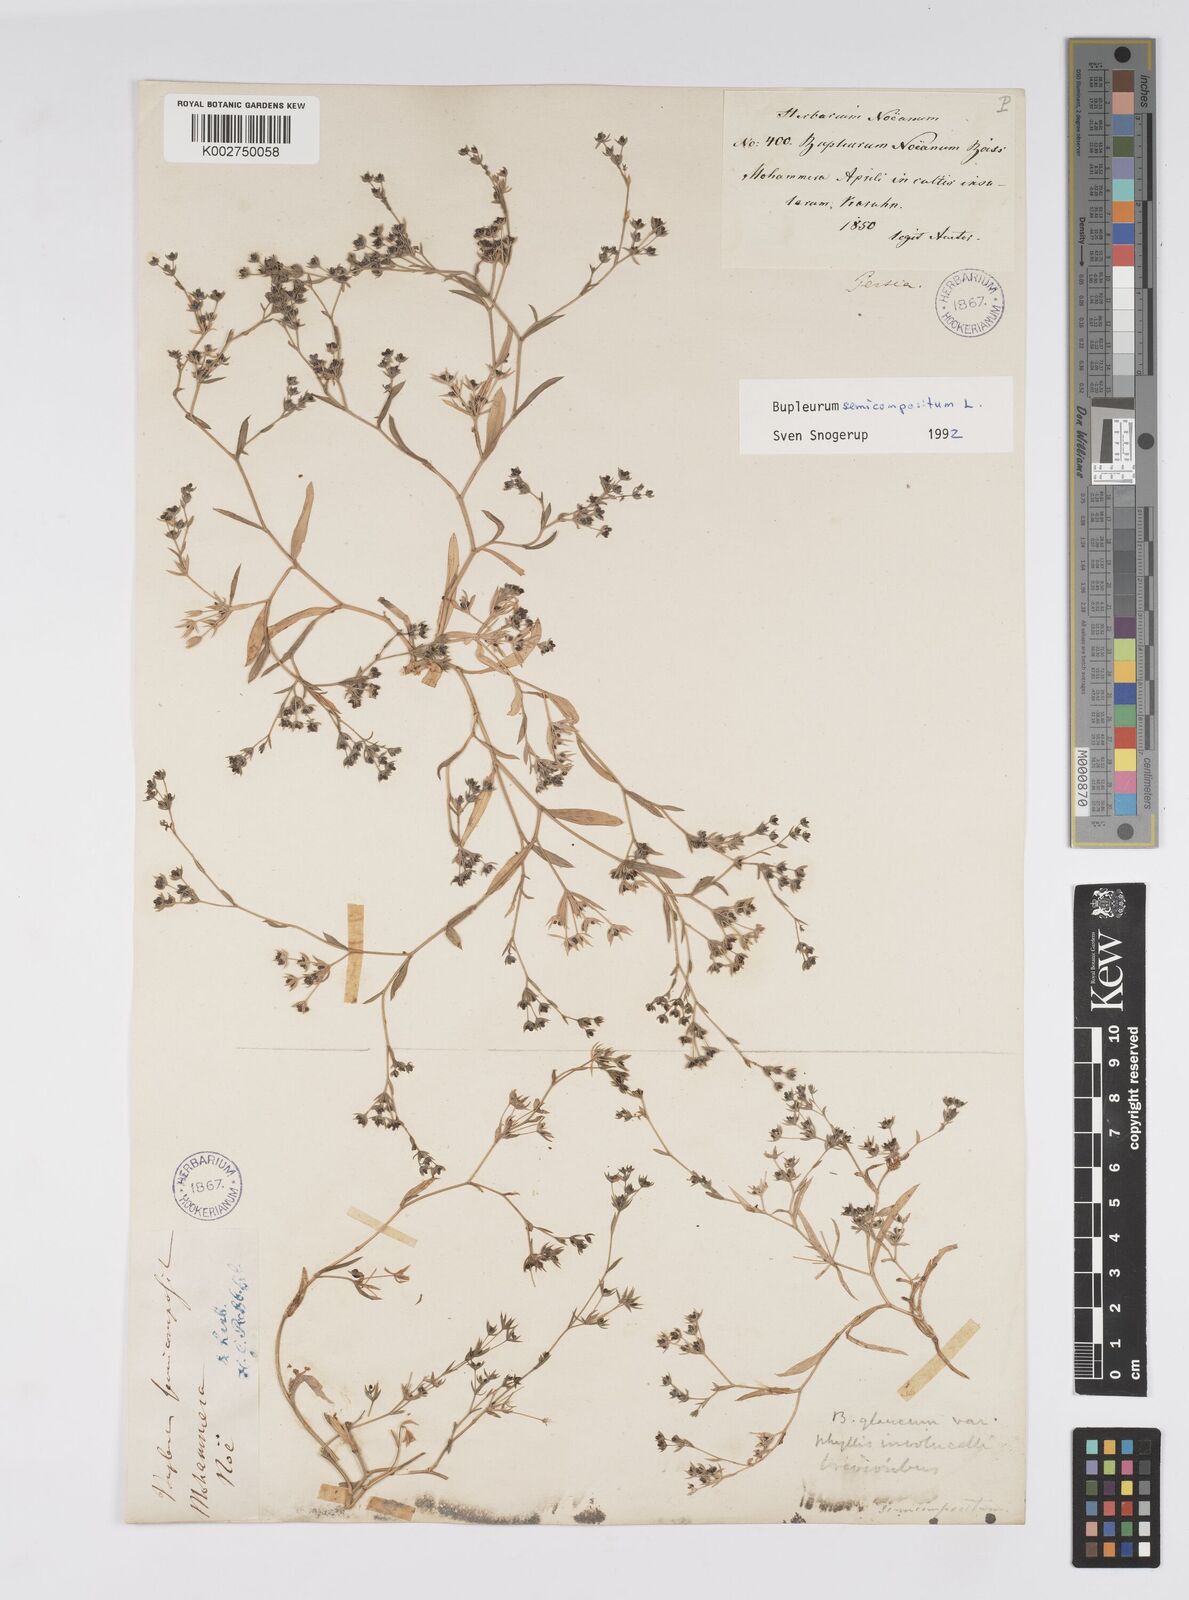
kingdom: Plantae
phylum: Tracheophyta
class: Magnoliopsida
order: Apiales
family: Apiaceae
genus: Bupleurum
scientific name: Bupleurum
